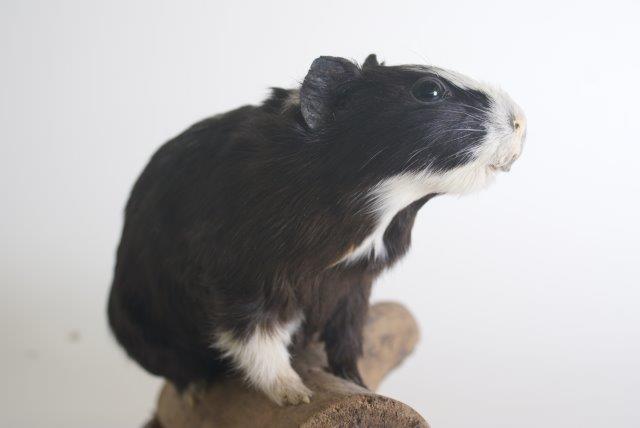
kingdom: Animalia
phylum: Chordata
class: Mammalia
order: Rodentia
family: Caviidae
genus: Cavia
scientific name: Cavia aperea
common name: Brazilian Guinea Pig
